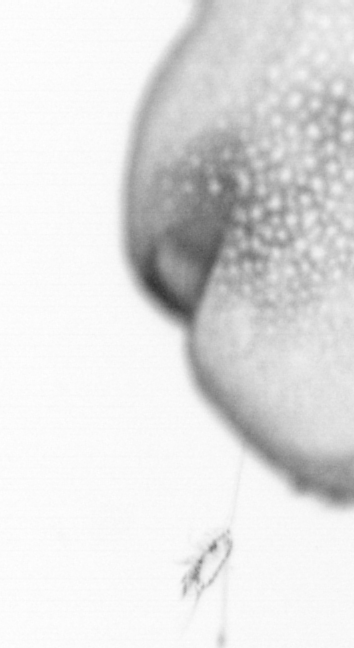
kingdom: Animalia
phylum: Chordata
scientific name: Chordata
